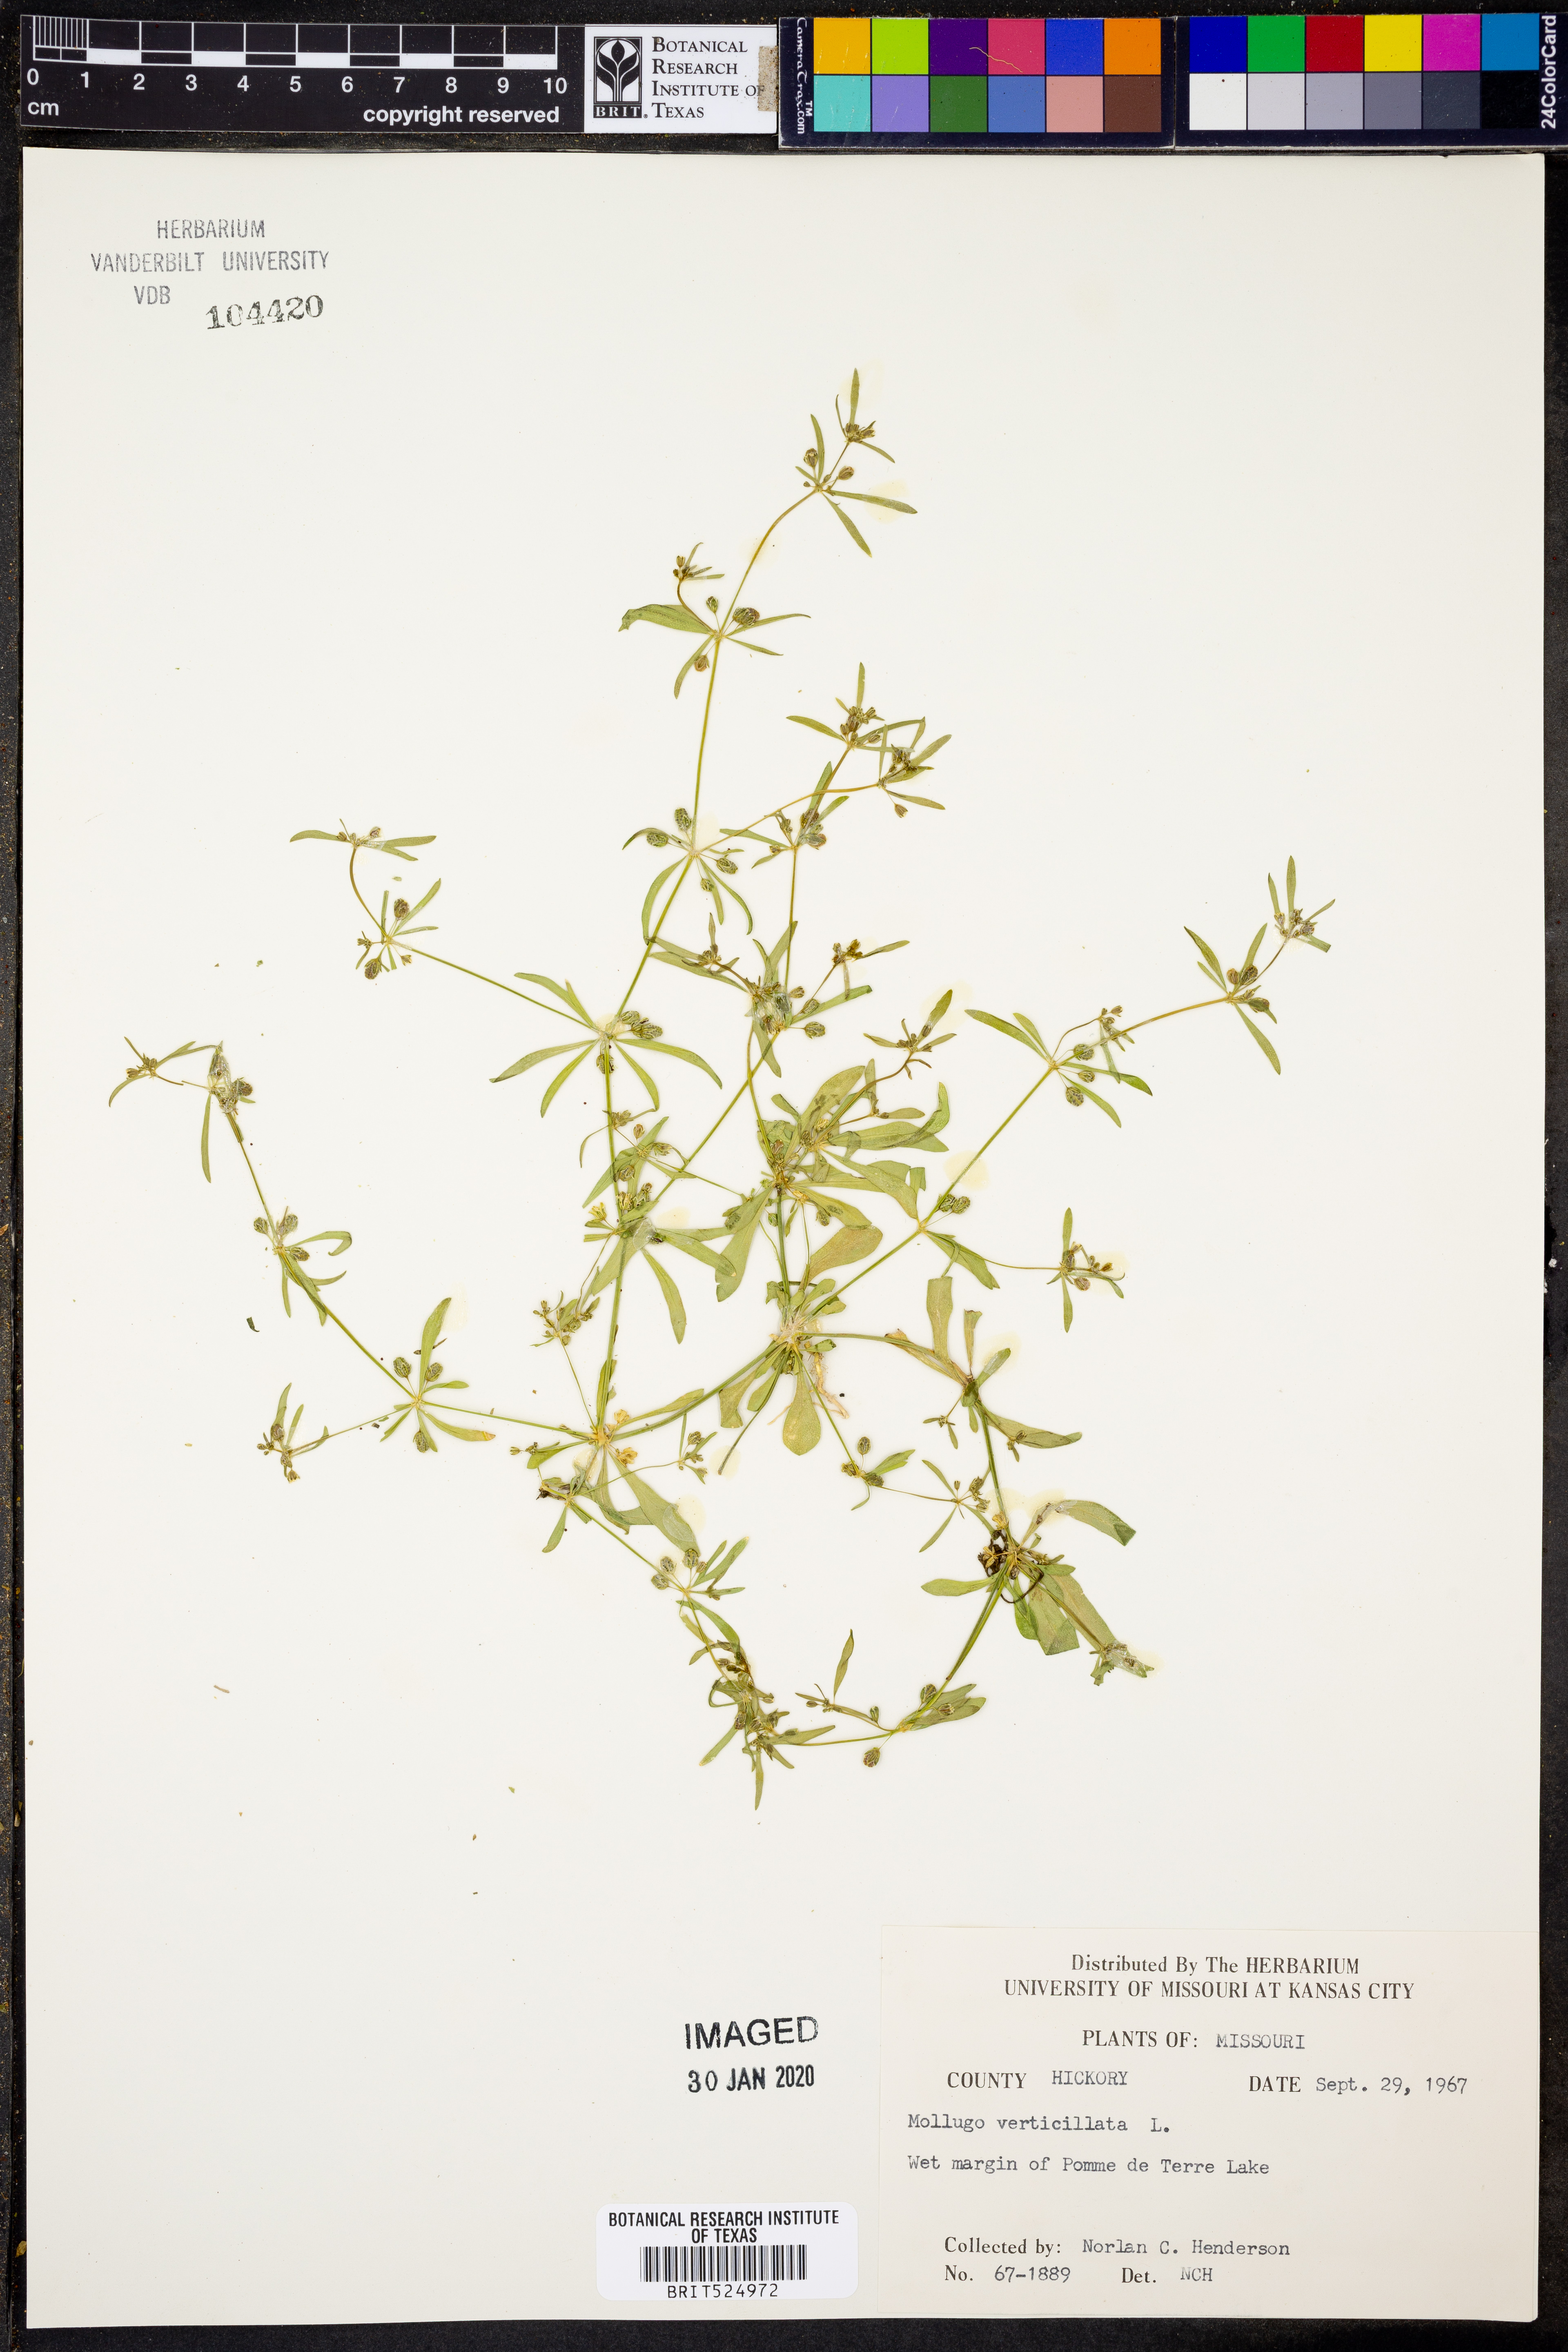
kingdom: Plantae
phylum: Tracheophyta
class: Magnoliopsida
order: Caryophyllales
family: Molluginaceae
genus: Mollugo
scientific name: Mollugo verticillata
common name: Green carpetweed
